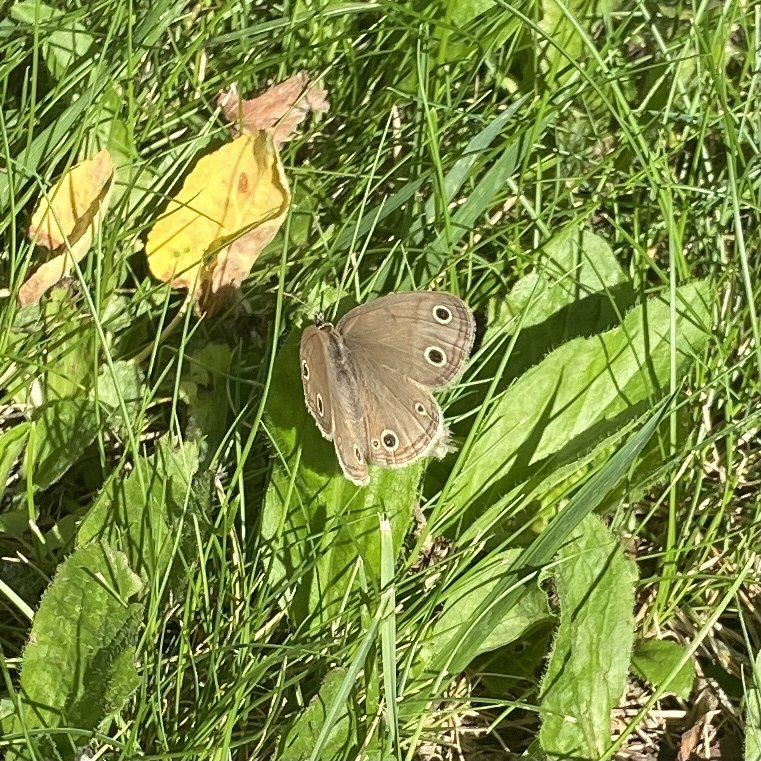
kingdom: Animalia
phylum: Arthropoda
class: Insecta
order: Lepidoptera
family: Nymphalidae
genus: Euptychia
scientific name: Euptychia cymela
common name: Little Wood Satyr
